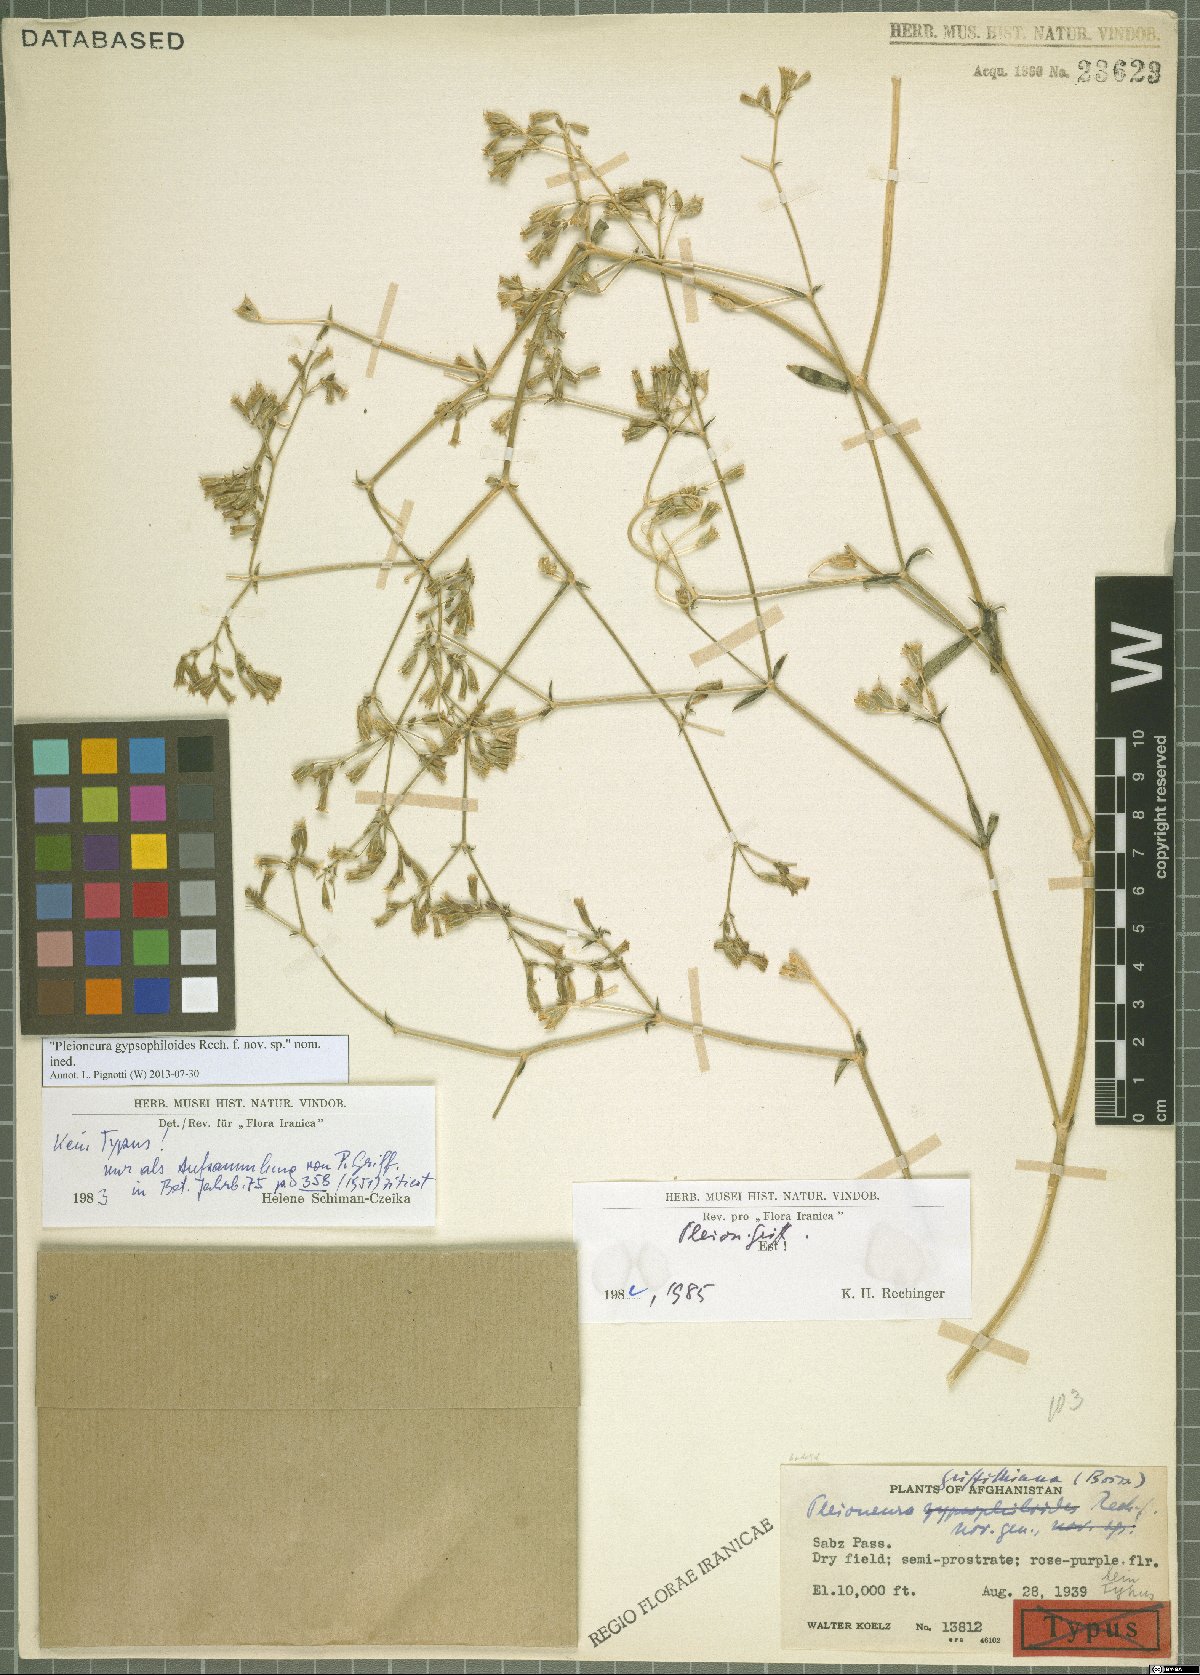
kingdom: Plantae
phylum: Tracheophyta
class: Magnoliopsida
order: Caryophyllales
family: Caryophyllaceae
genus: Saponaria
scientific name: Saponaria griffithiana
